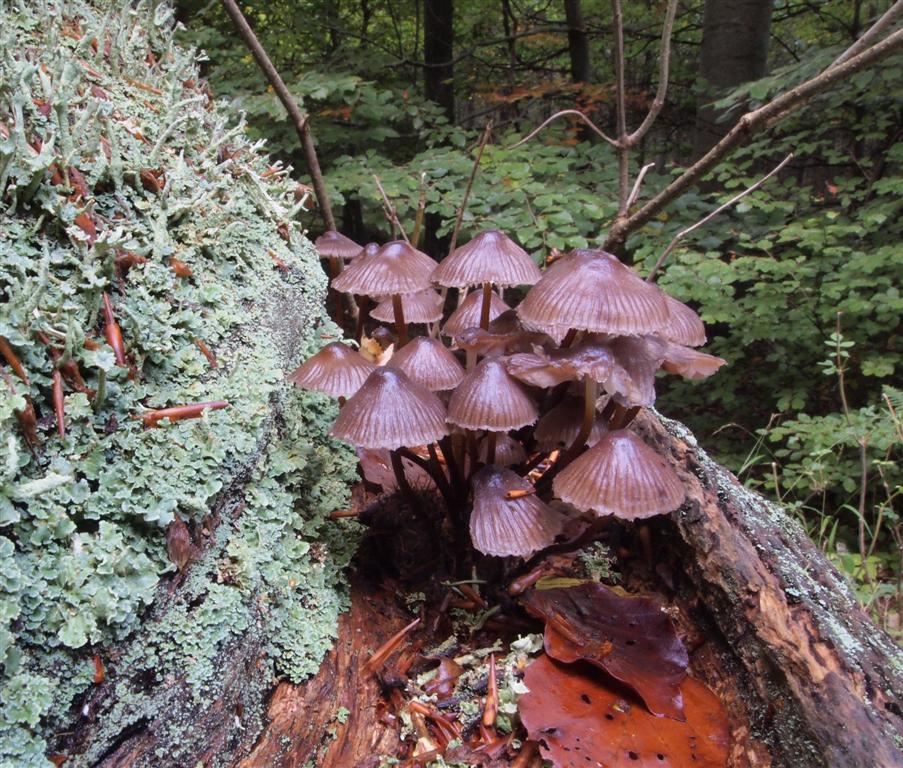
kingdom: Fungi
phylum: Basidiomycota
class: Agaricomycetes
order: Agaricales
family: Mycenaceae
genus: Mycena
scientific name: Mycena inclinata
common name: nikkende huesvamp
